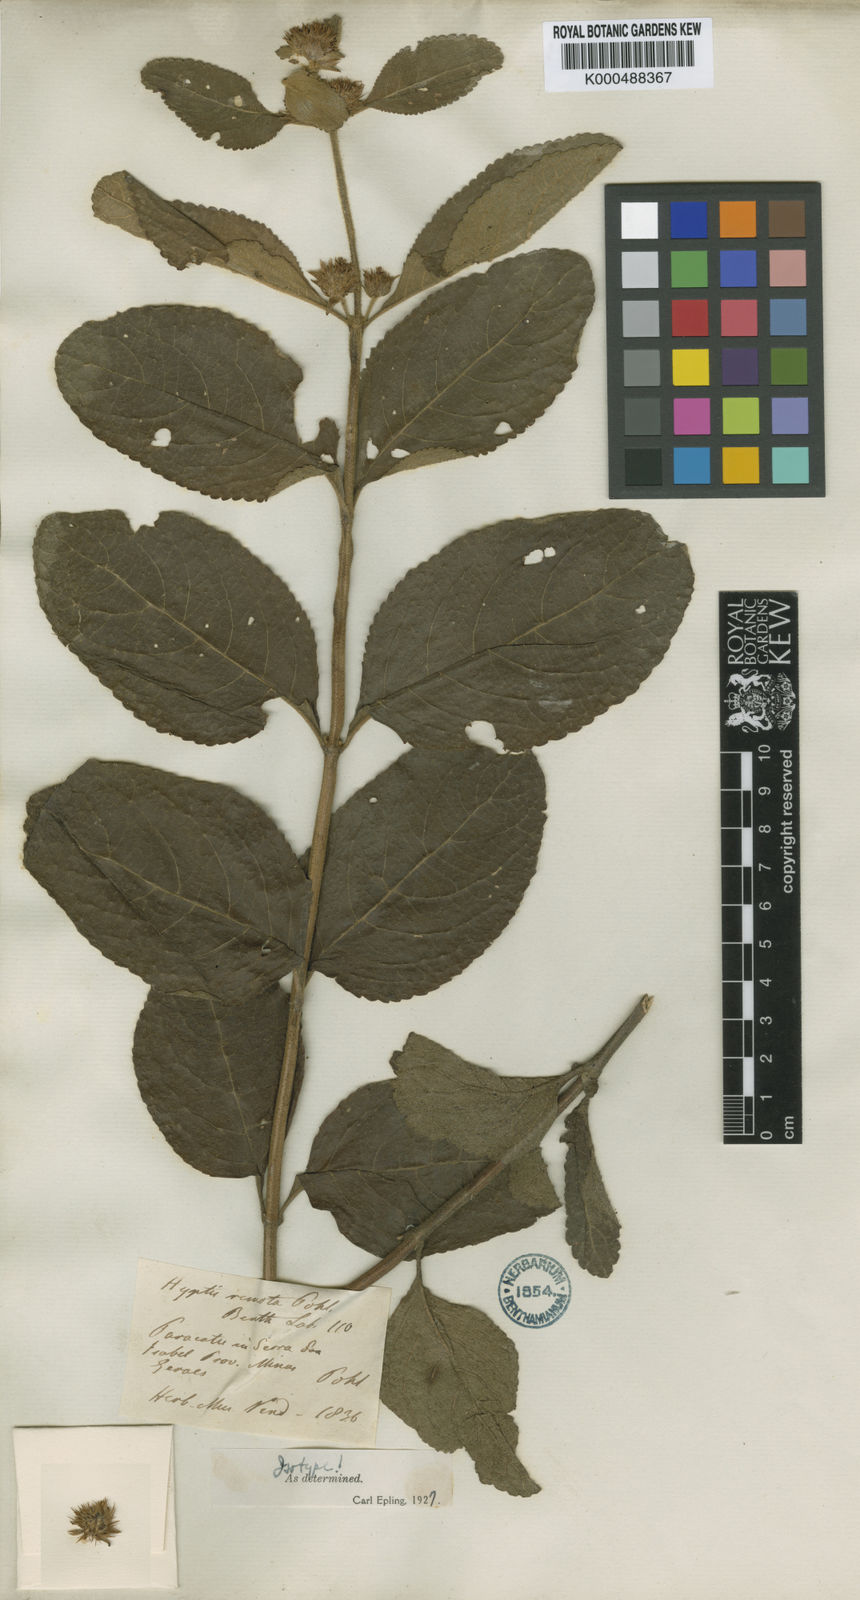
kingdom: Plantae
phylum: Tracheophyta
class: Magnoliopsida
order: Lamiales
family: Lamiaceae
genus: Hyptis
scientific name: Hyptis remota
